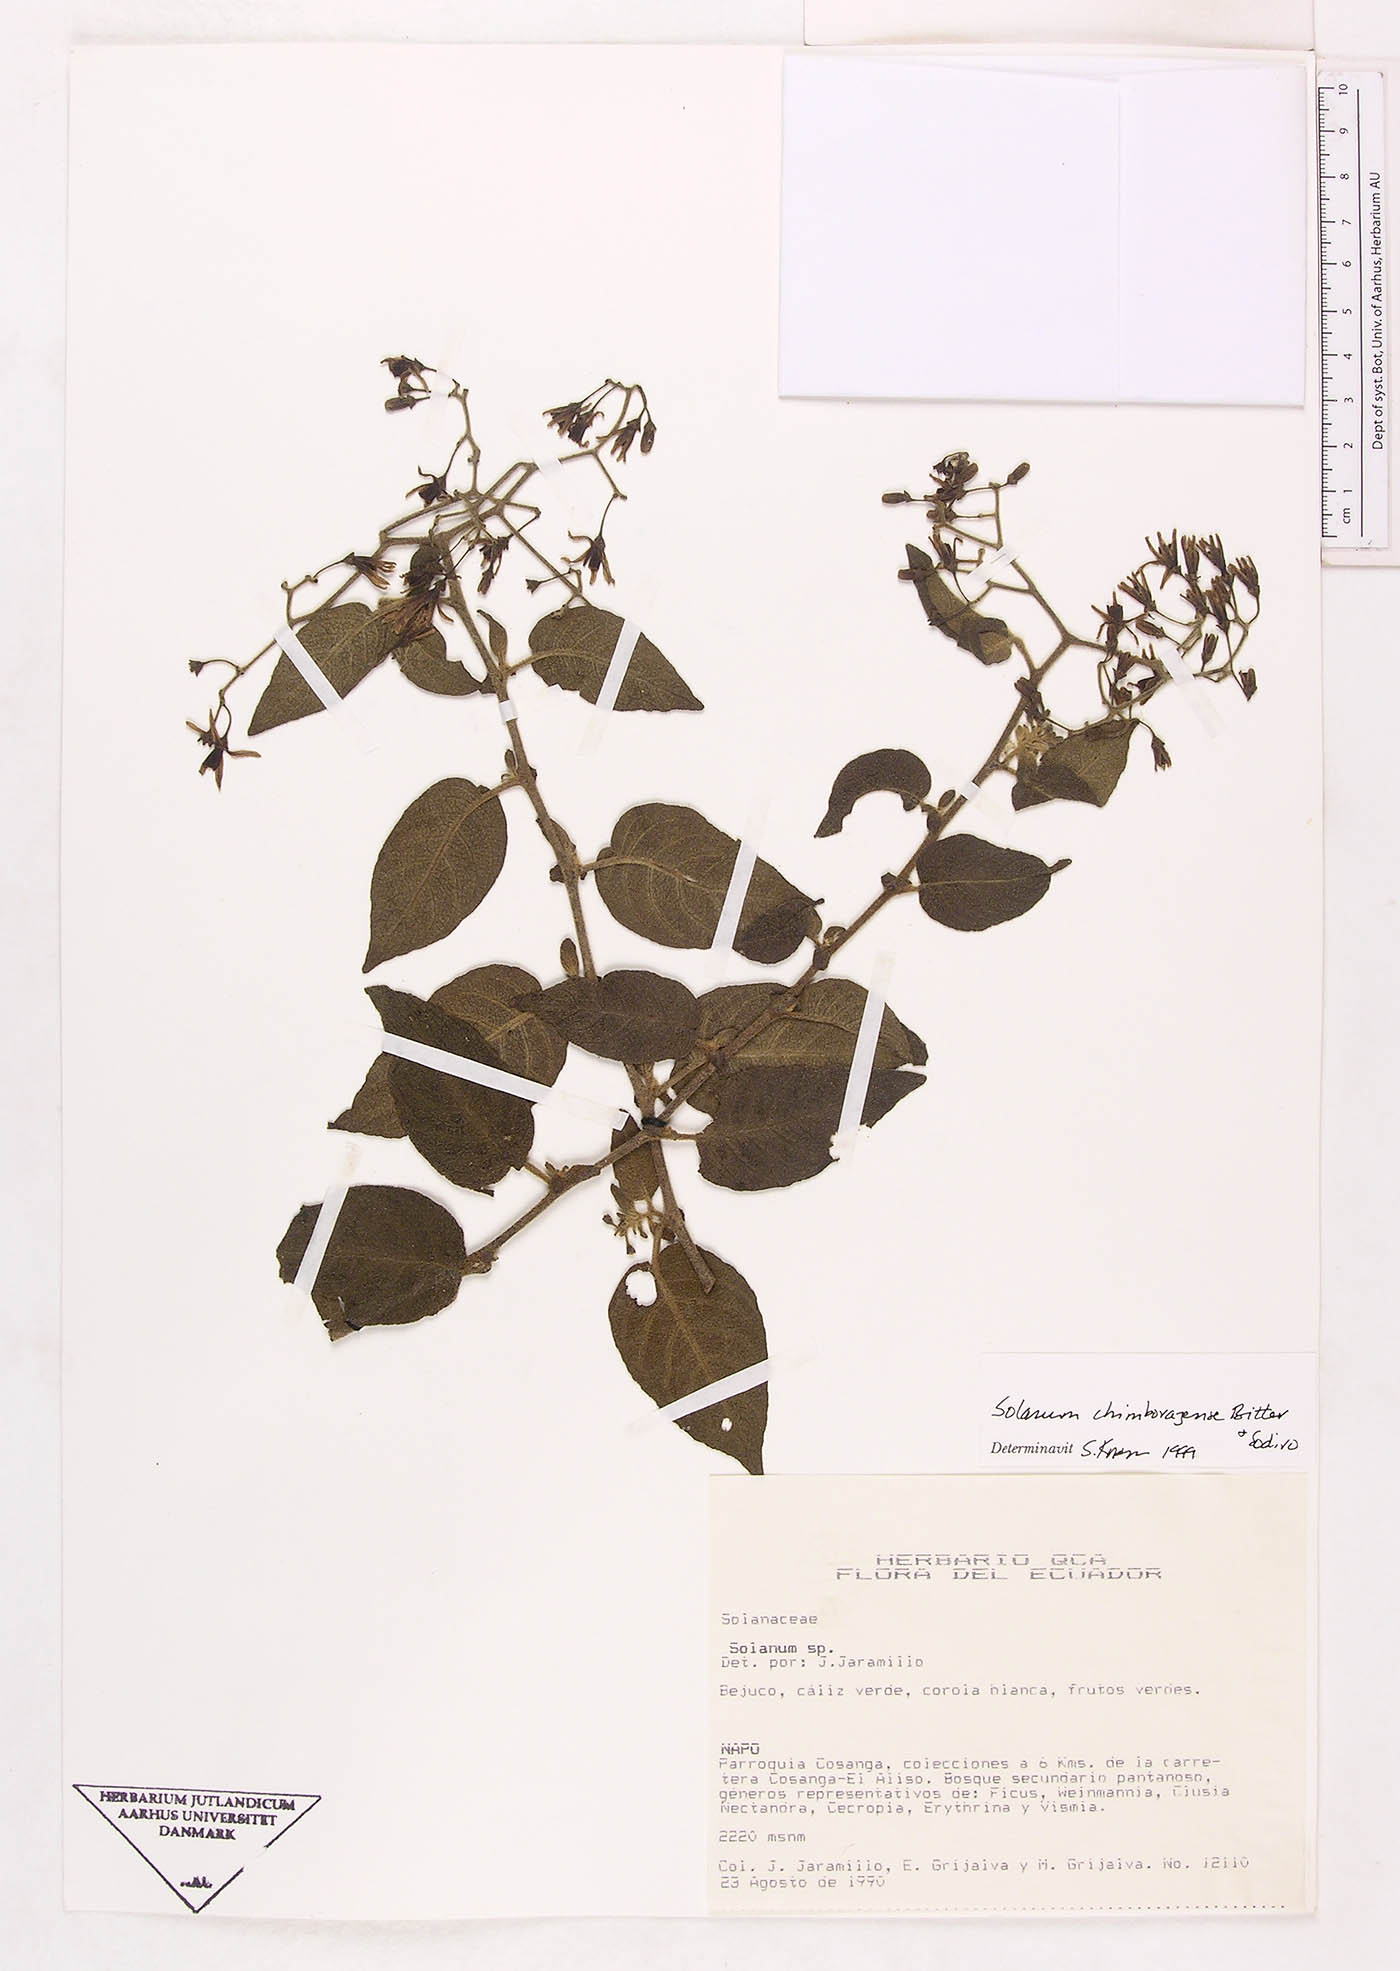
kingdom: Plantae
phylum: Tracheophyta
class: Magnoliopsida
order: Solanales
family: Solanaceae
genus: Solanum
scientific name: Solanum chimborazense
